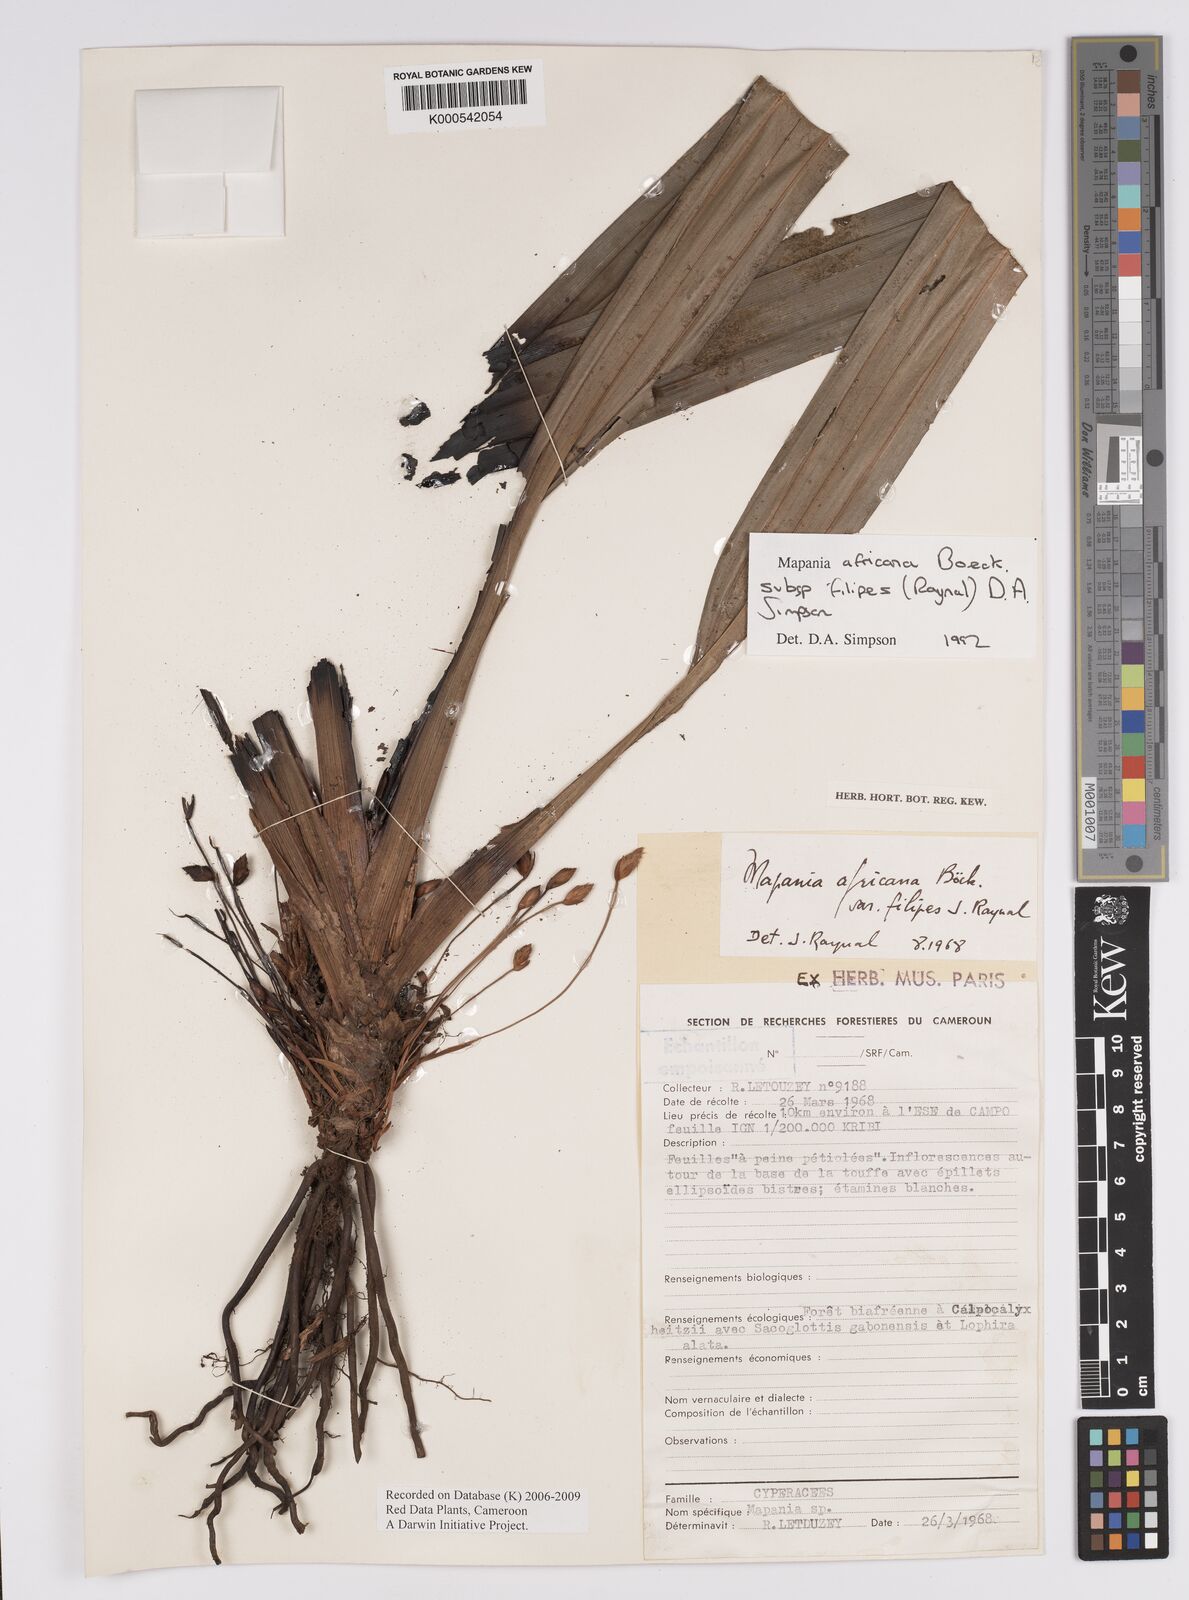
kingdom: Plantae
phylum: Tracheophyta
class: Liliopsida
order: Poales
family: Cyperaceae
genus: Mapania
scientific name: Mapania africana
